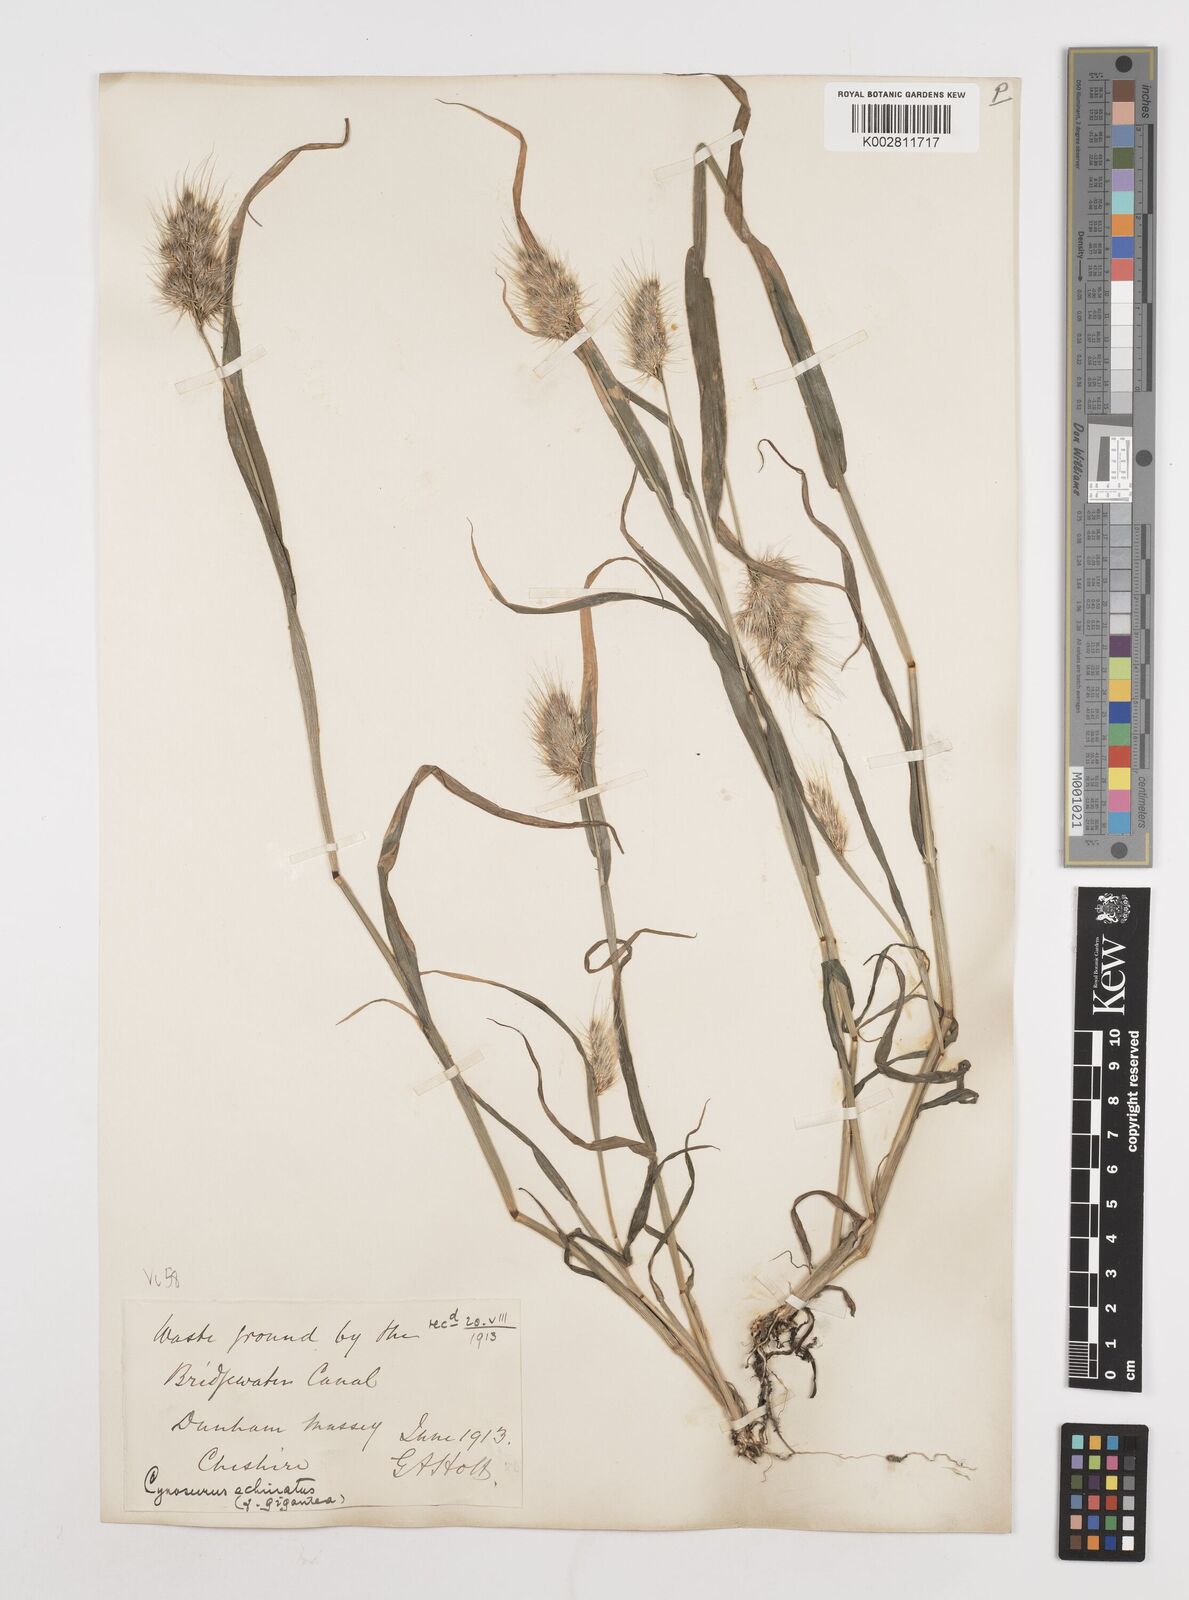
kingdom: Plantae
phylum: Tracheophyta
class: Liliopsida
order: Poales
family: Poaceae
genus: Cynosurus
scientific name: Cynosurus echinatus
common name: Rough dog's-tail
